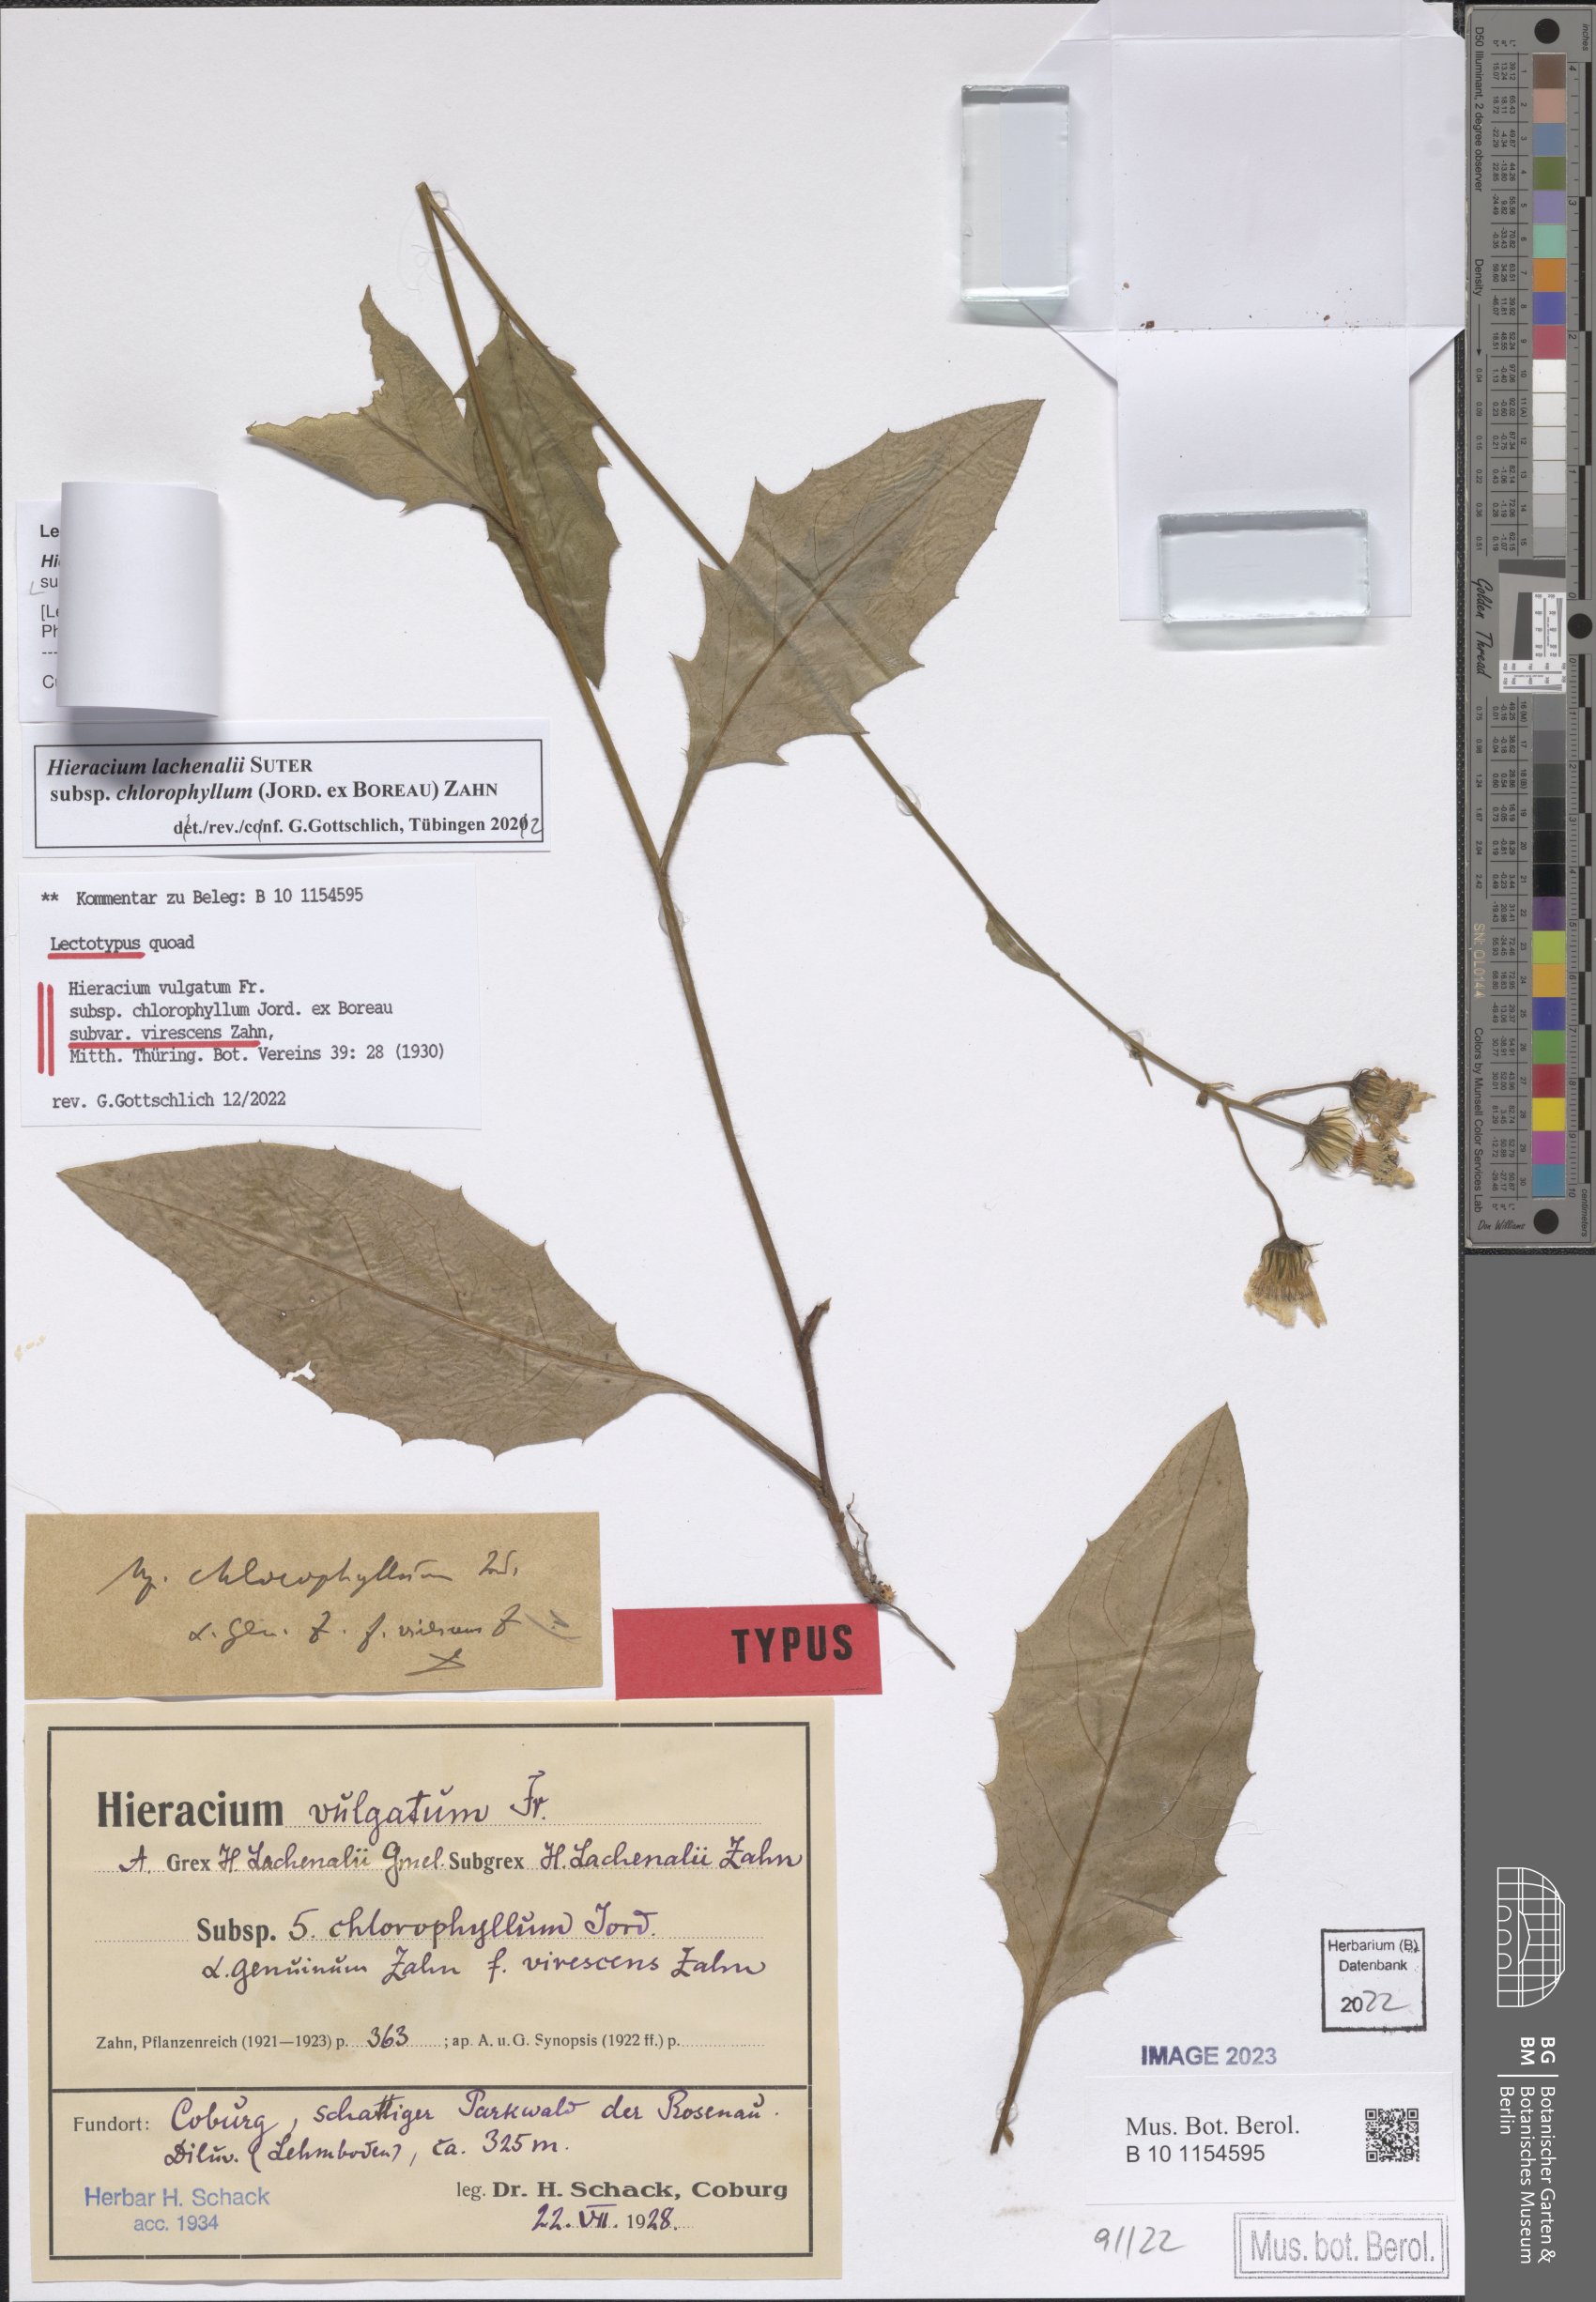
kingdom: Plantae
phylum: Tracheophyta
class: Magnoliopsida
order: Asterales
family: Asteraceae
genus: Hieracium
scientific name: Hieracium vulgatum
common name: Common hawkweed
